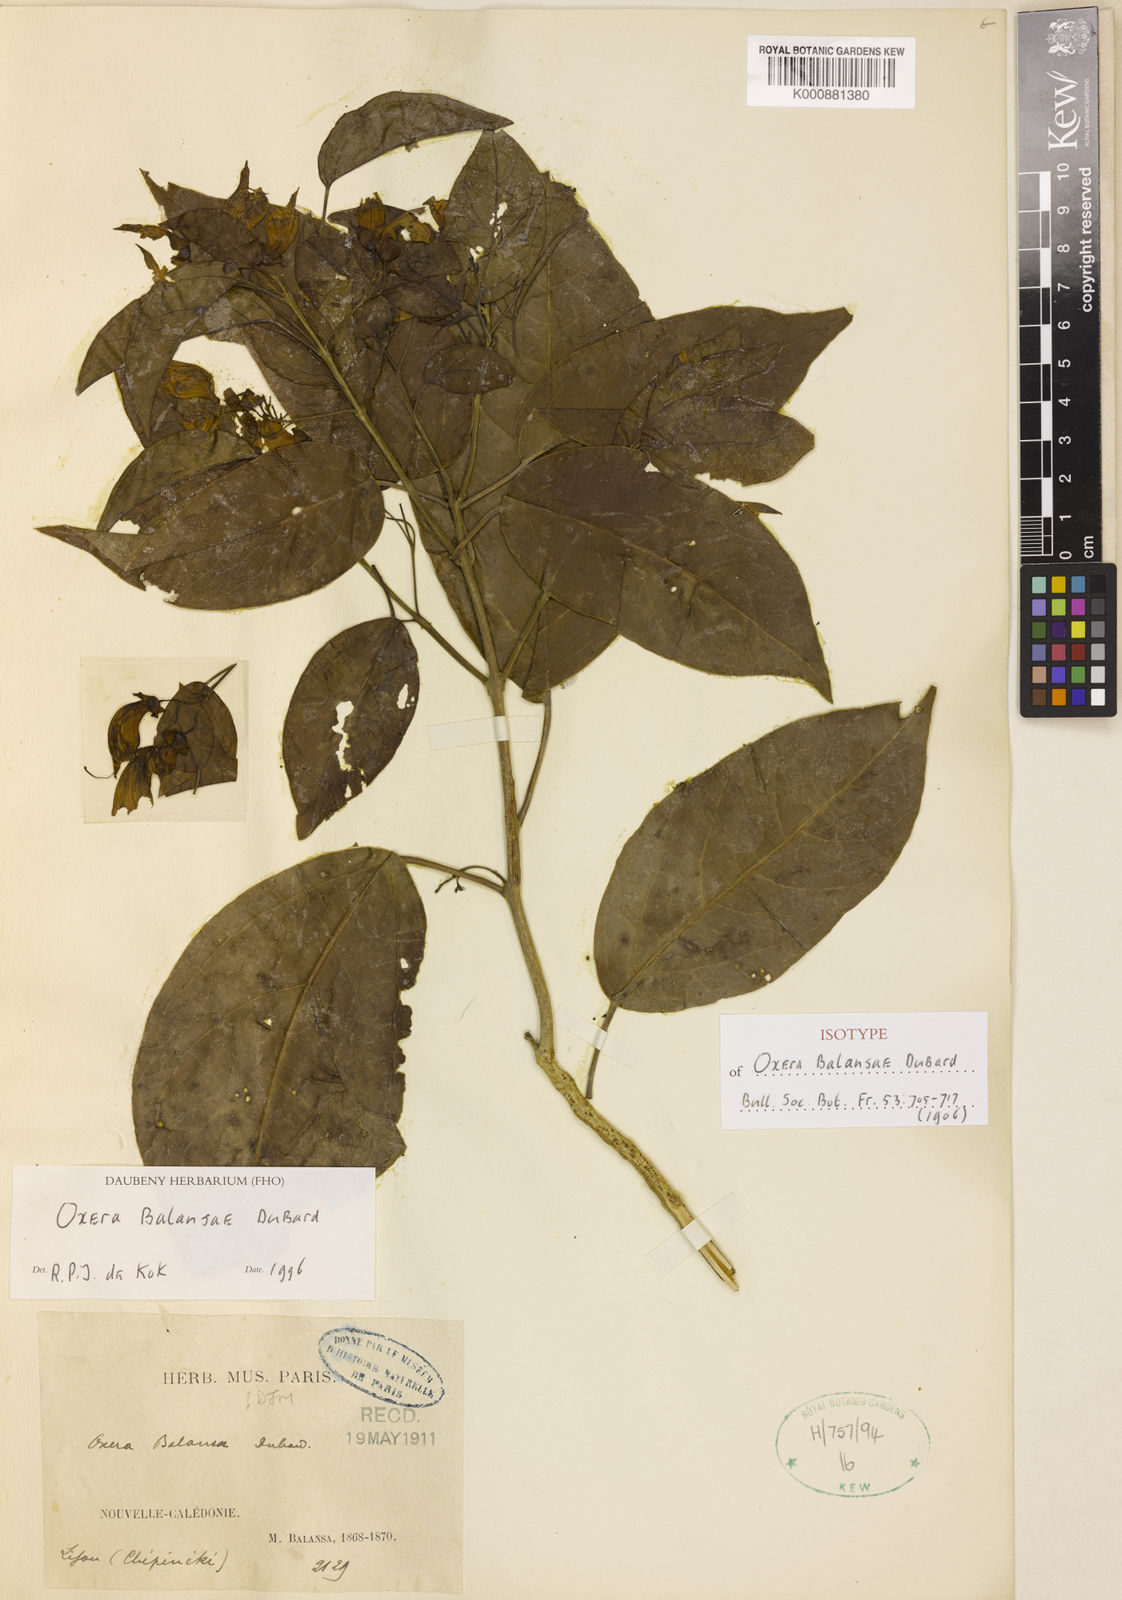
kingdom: Plantae
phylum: Tracheophyta
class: Magnoliopsida
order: Lamiales
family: Lamiaceae
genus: Oxera
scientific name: Oxera balansae
